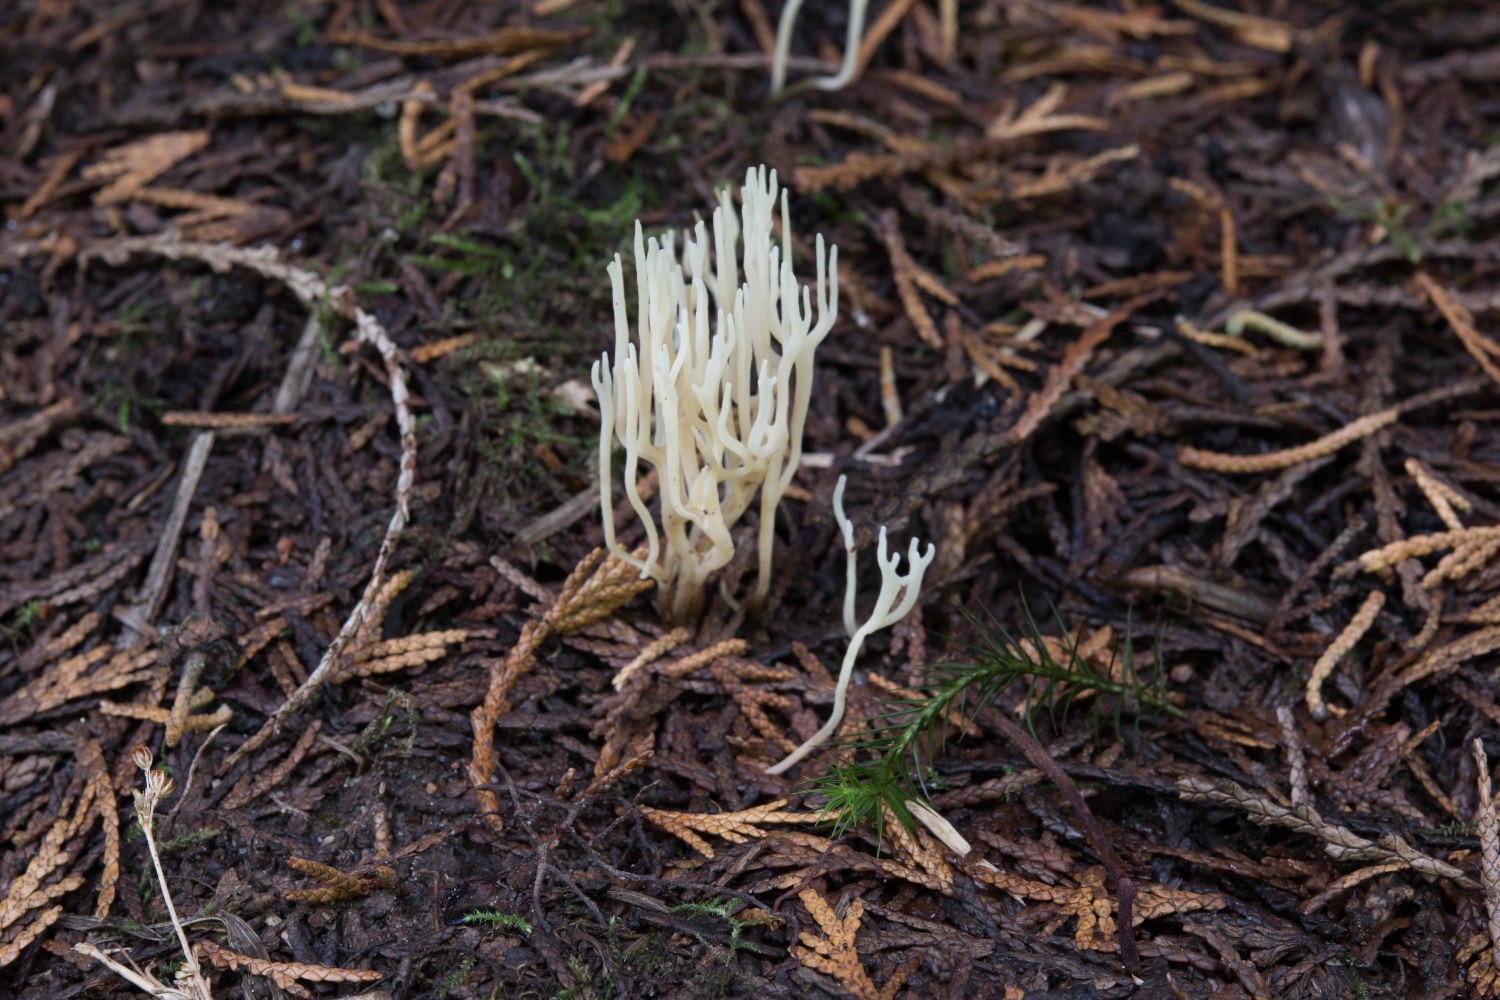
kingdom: Fungi
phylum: Basidiomycota
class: Agaricomycetes
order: Agaricales
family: Clavariaceae
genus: Ramariopsis
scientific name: Ramariopsis kunzei
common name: mangegrenet køllesvamp
